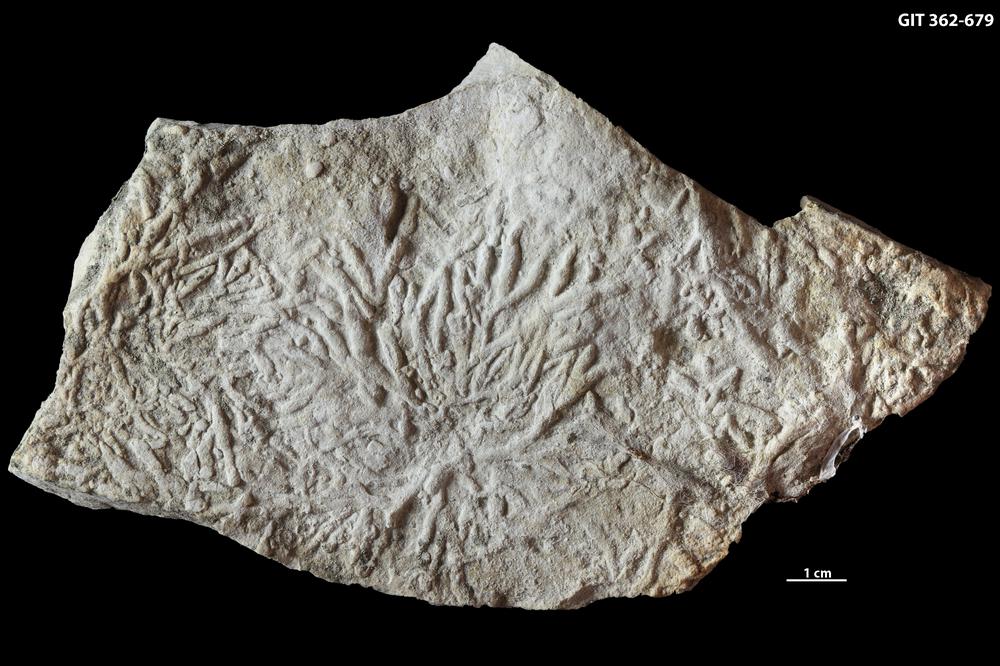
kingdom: Animalia
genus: Chondrites
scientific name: Chondrites
